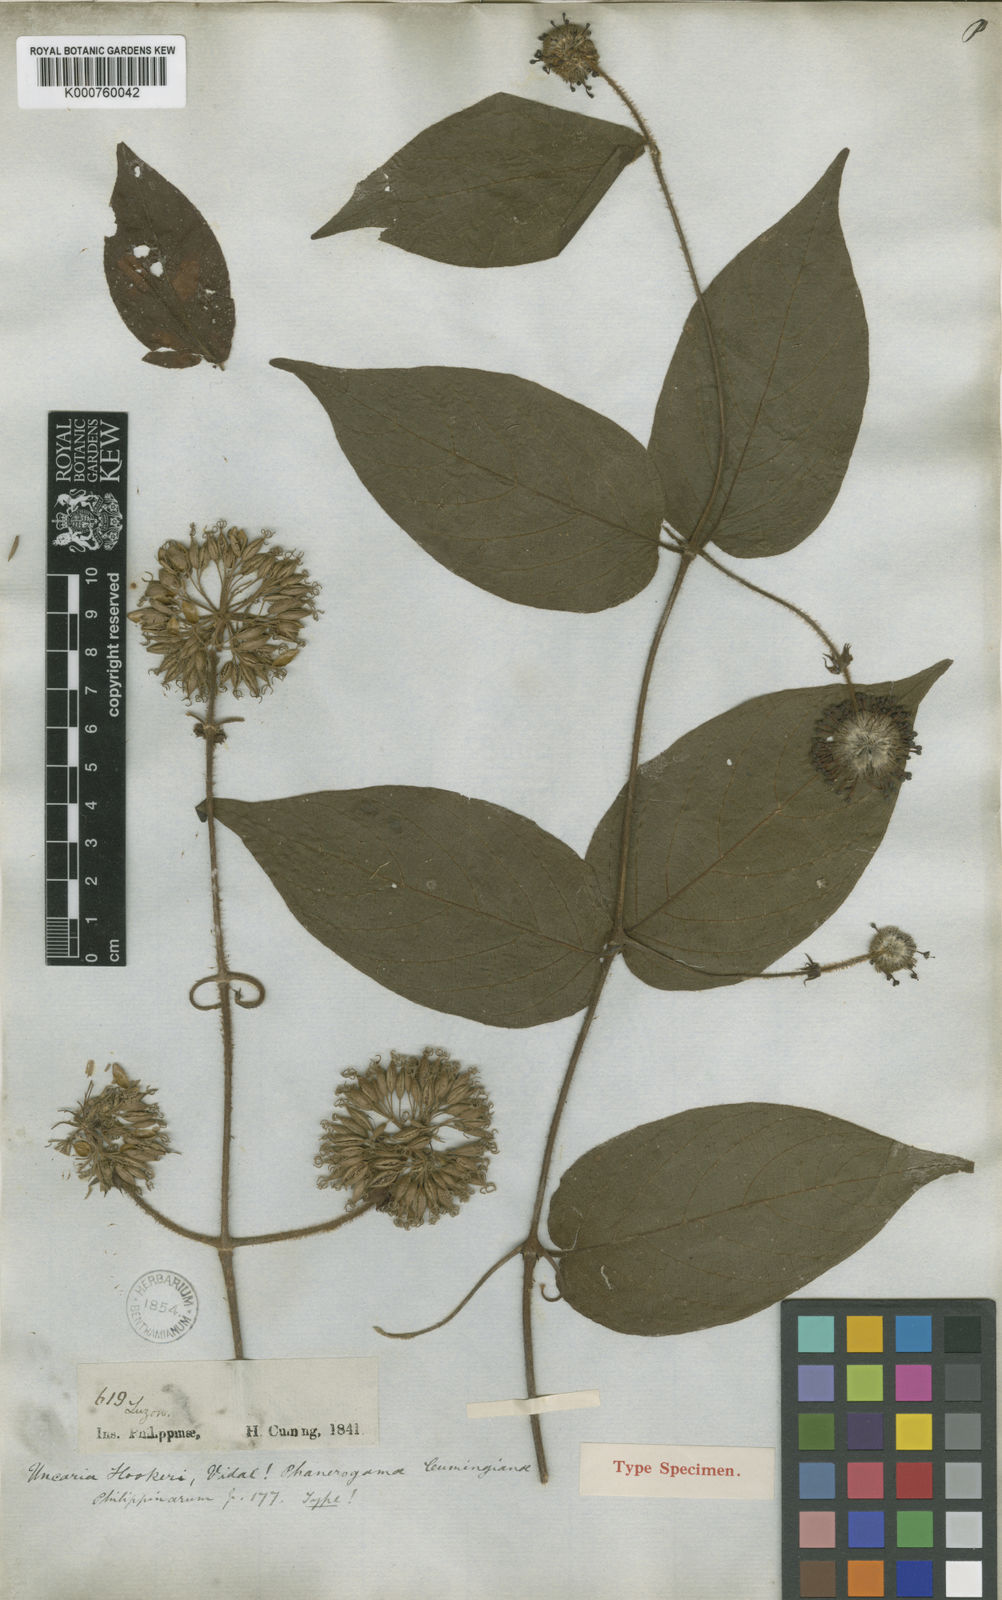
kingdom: Plantae
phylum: Tracheophyta
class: Magnoliopsida
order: Gentianales
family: Rubiaceae
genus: Uncaria
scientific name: Uncaria perrottetii
